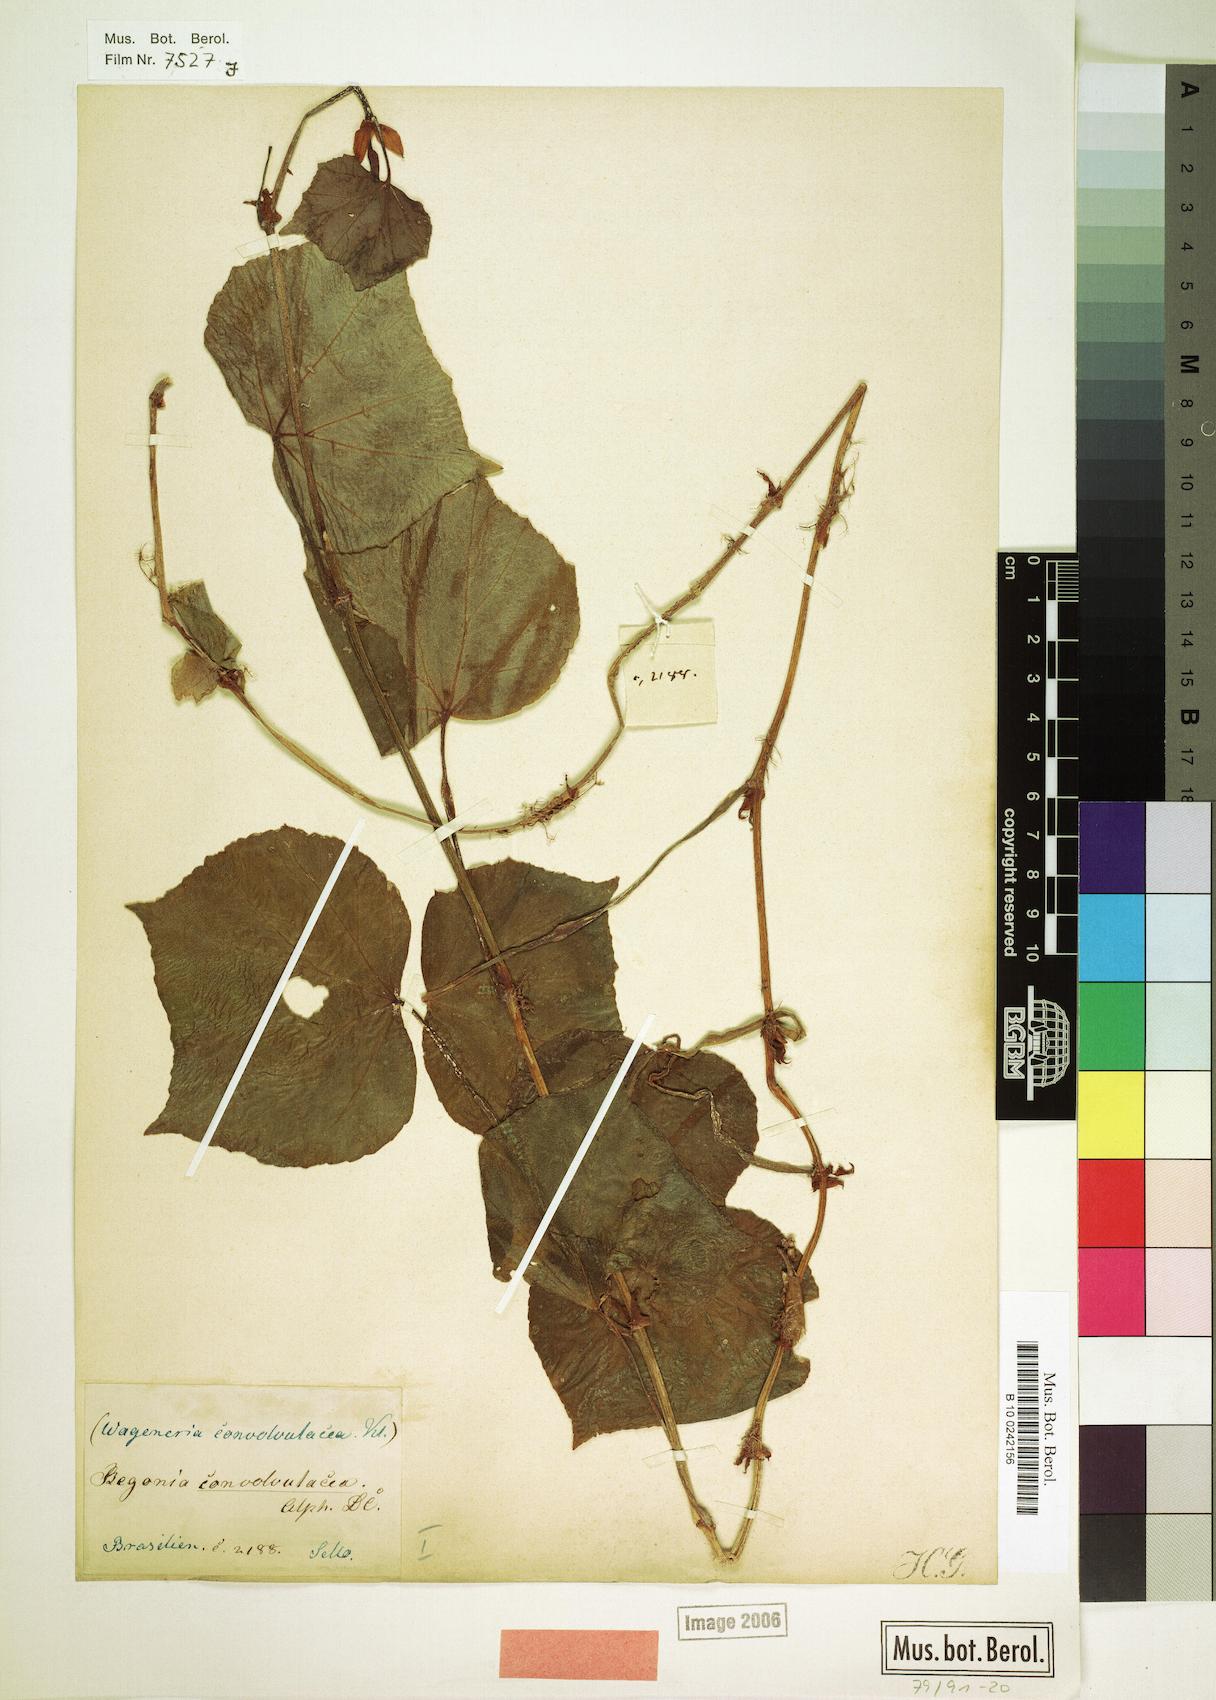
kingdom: Plantae
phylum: Tracheophyta
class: Magnoliopsida
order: Cucurbitales
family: Begoniaceae
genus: Begonia
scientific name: Begonia convolvulacea
